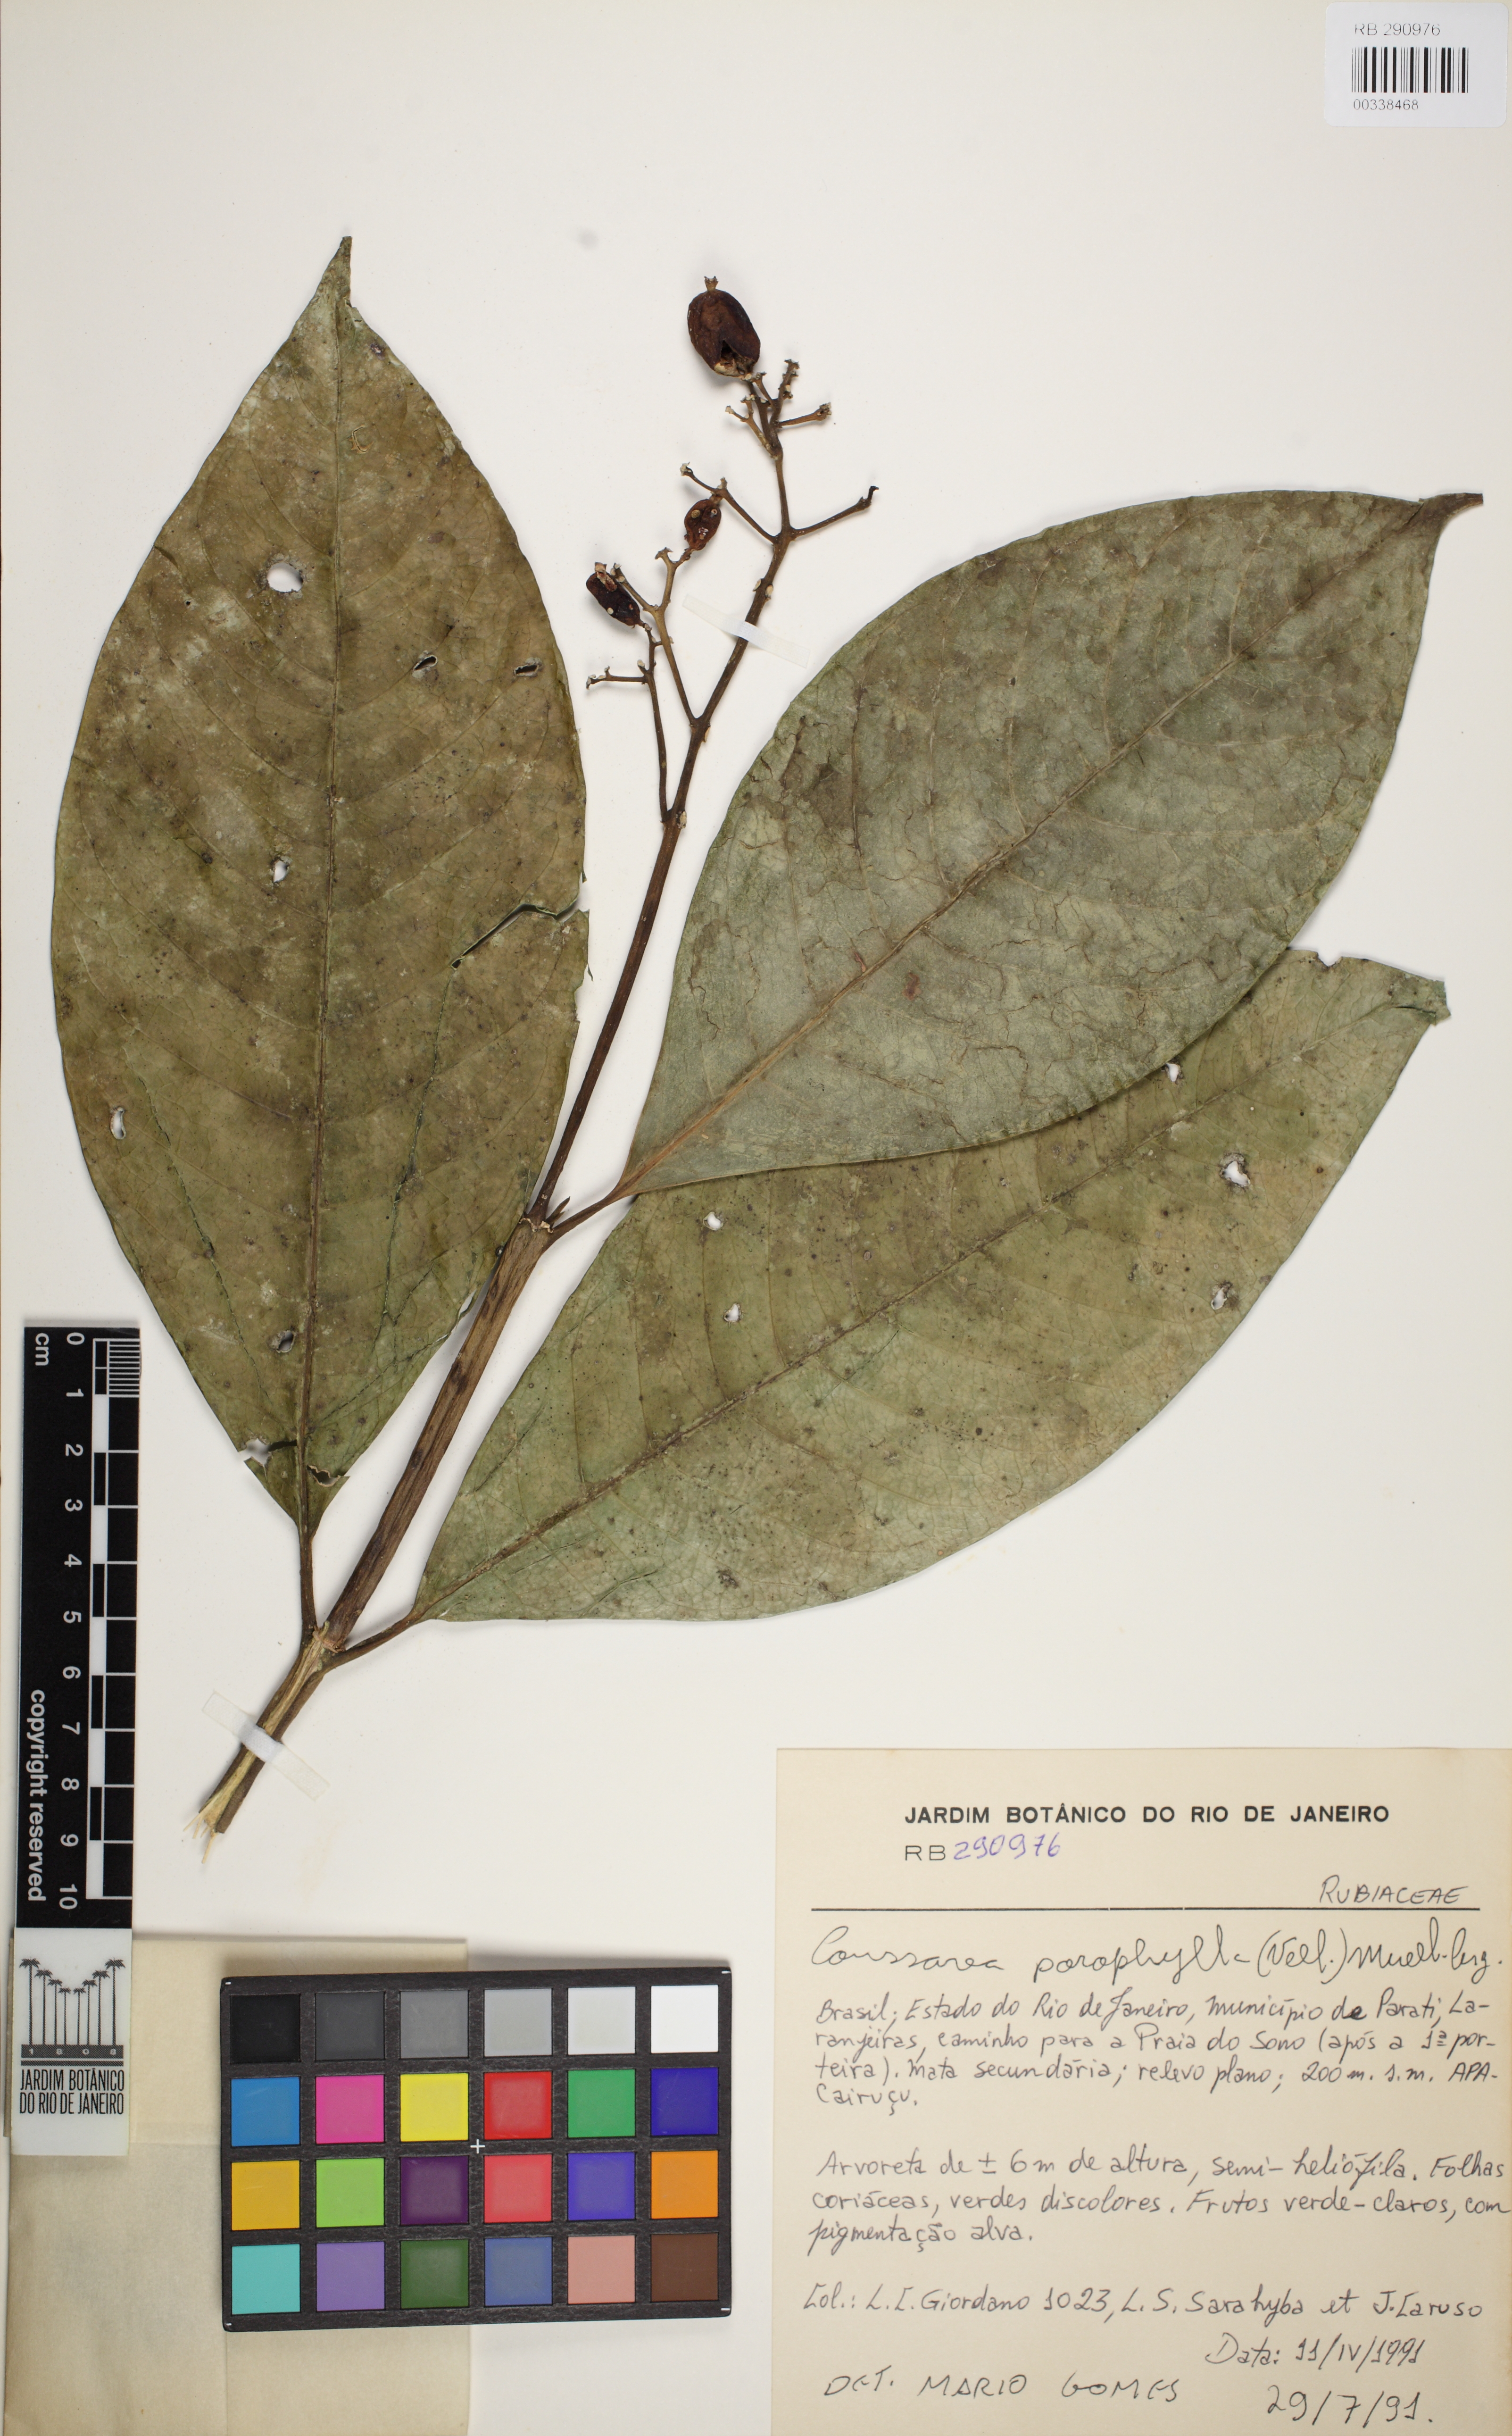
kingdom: Plantae
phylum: Tracheophyta
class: Magnoliopsida
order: Gentianales
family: Rubiaceae
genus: Coussarea
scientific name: Coussarea meridionalis
